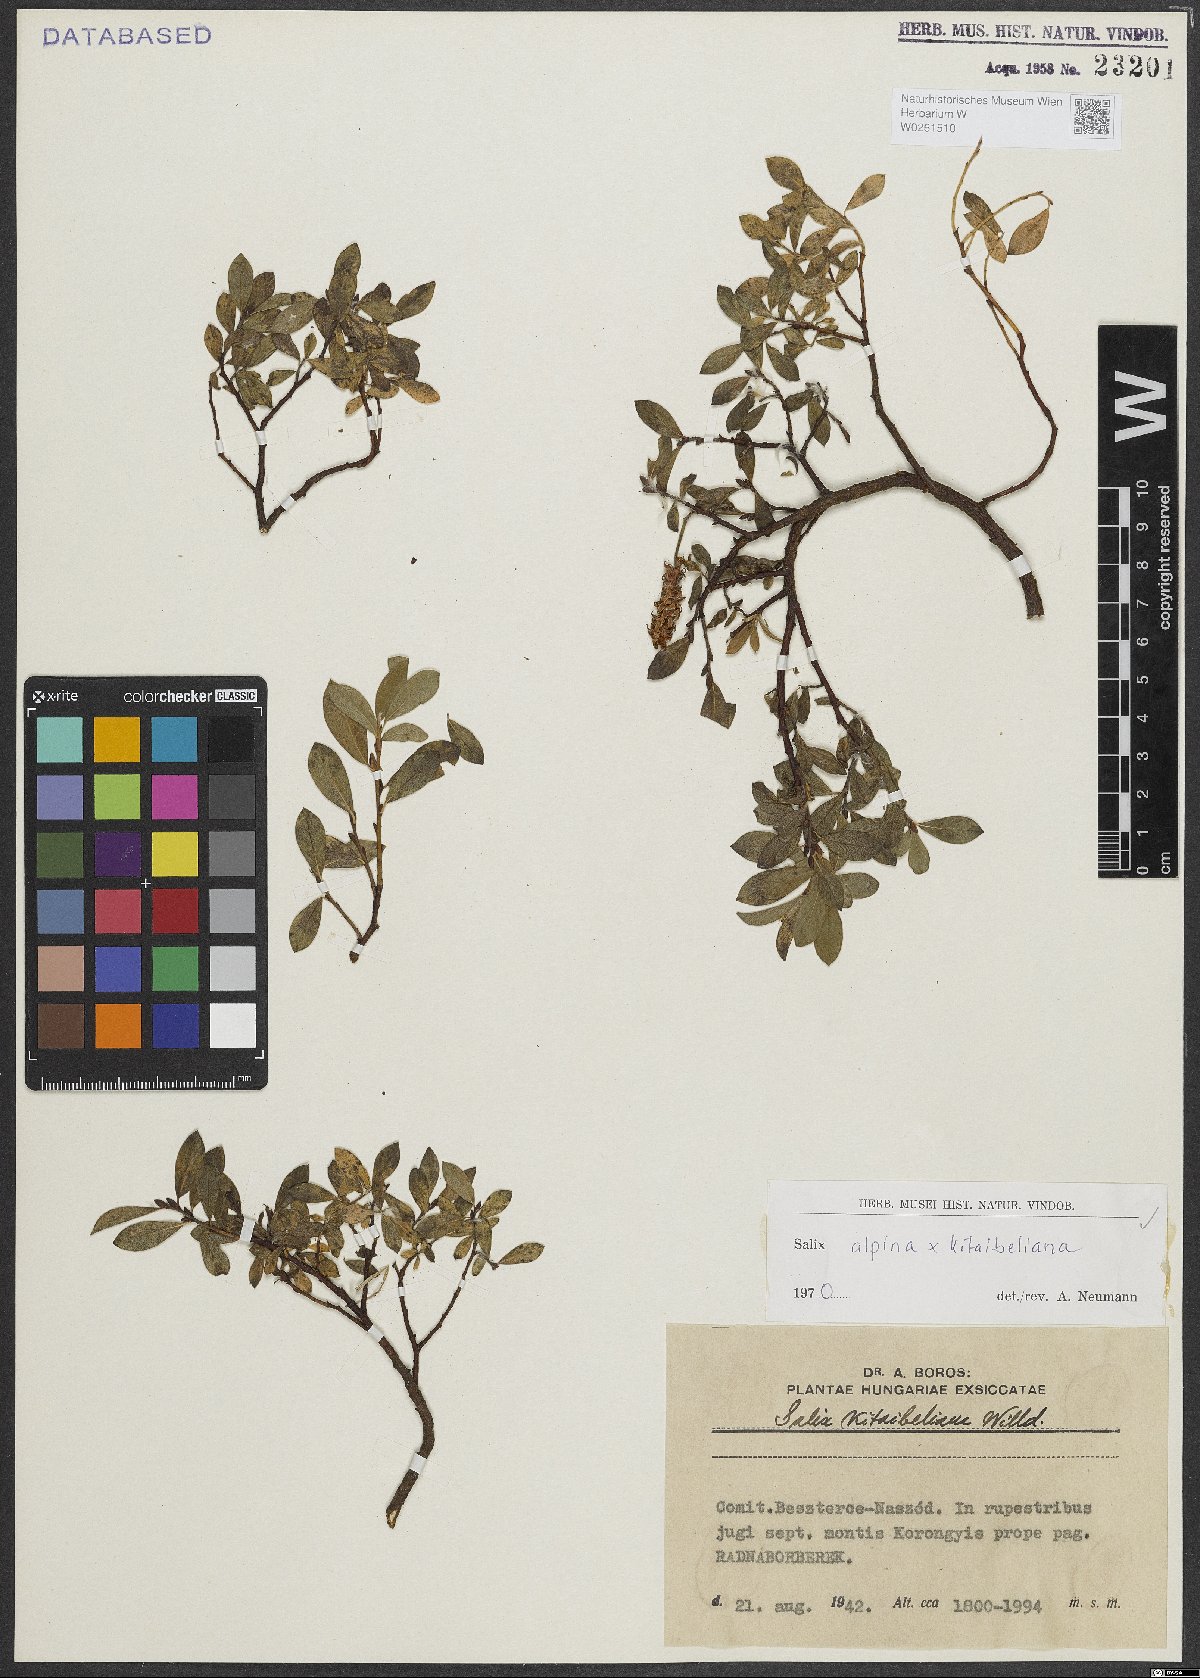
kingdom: Plantae
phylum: Tracheophyta
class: Magnoliopsida
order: Malpighiales
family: Salicaceae
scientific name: Salicaceae
